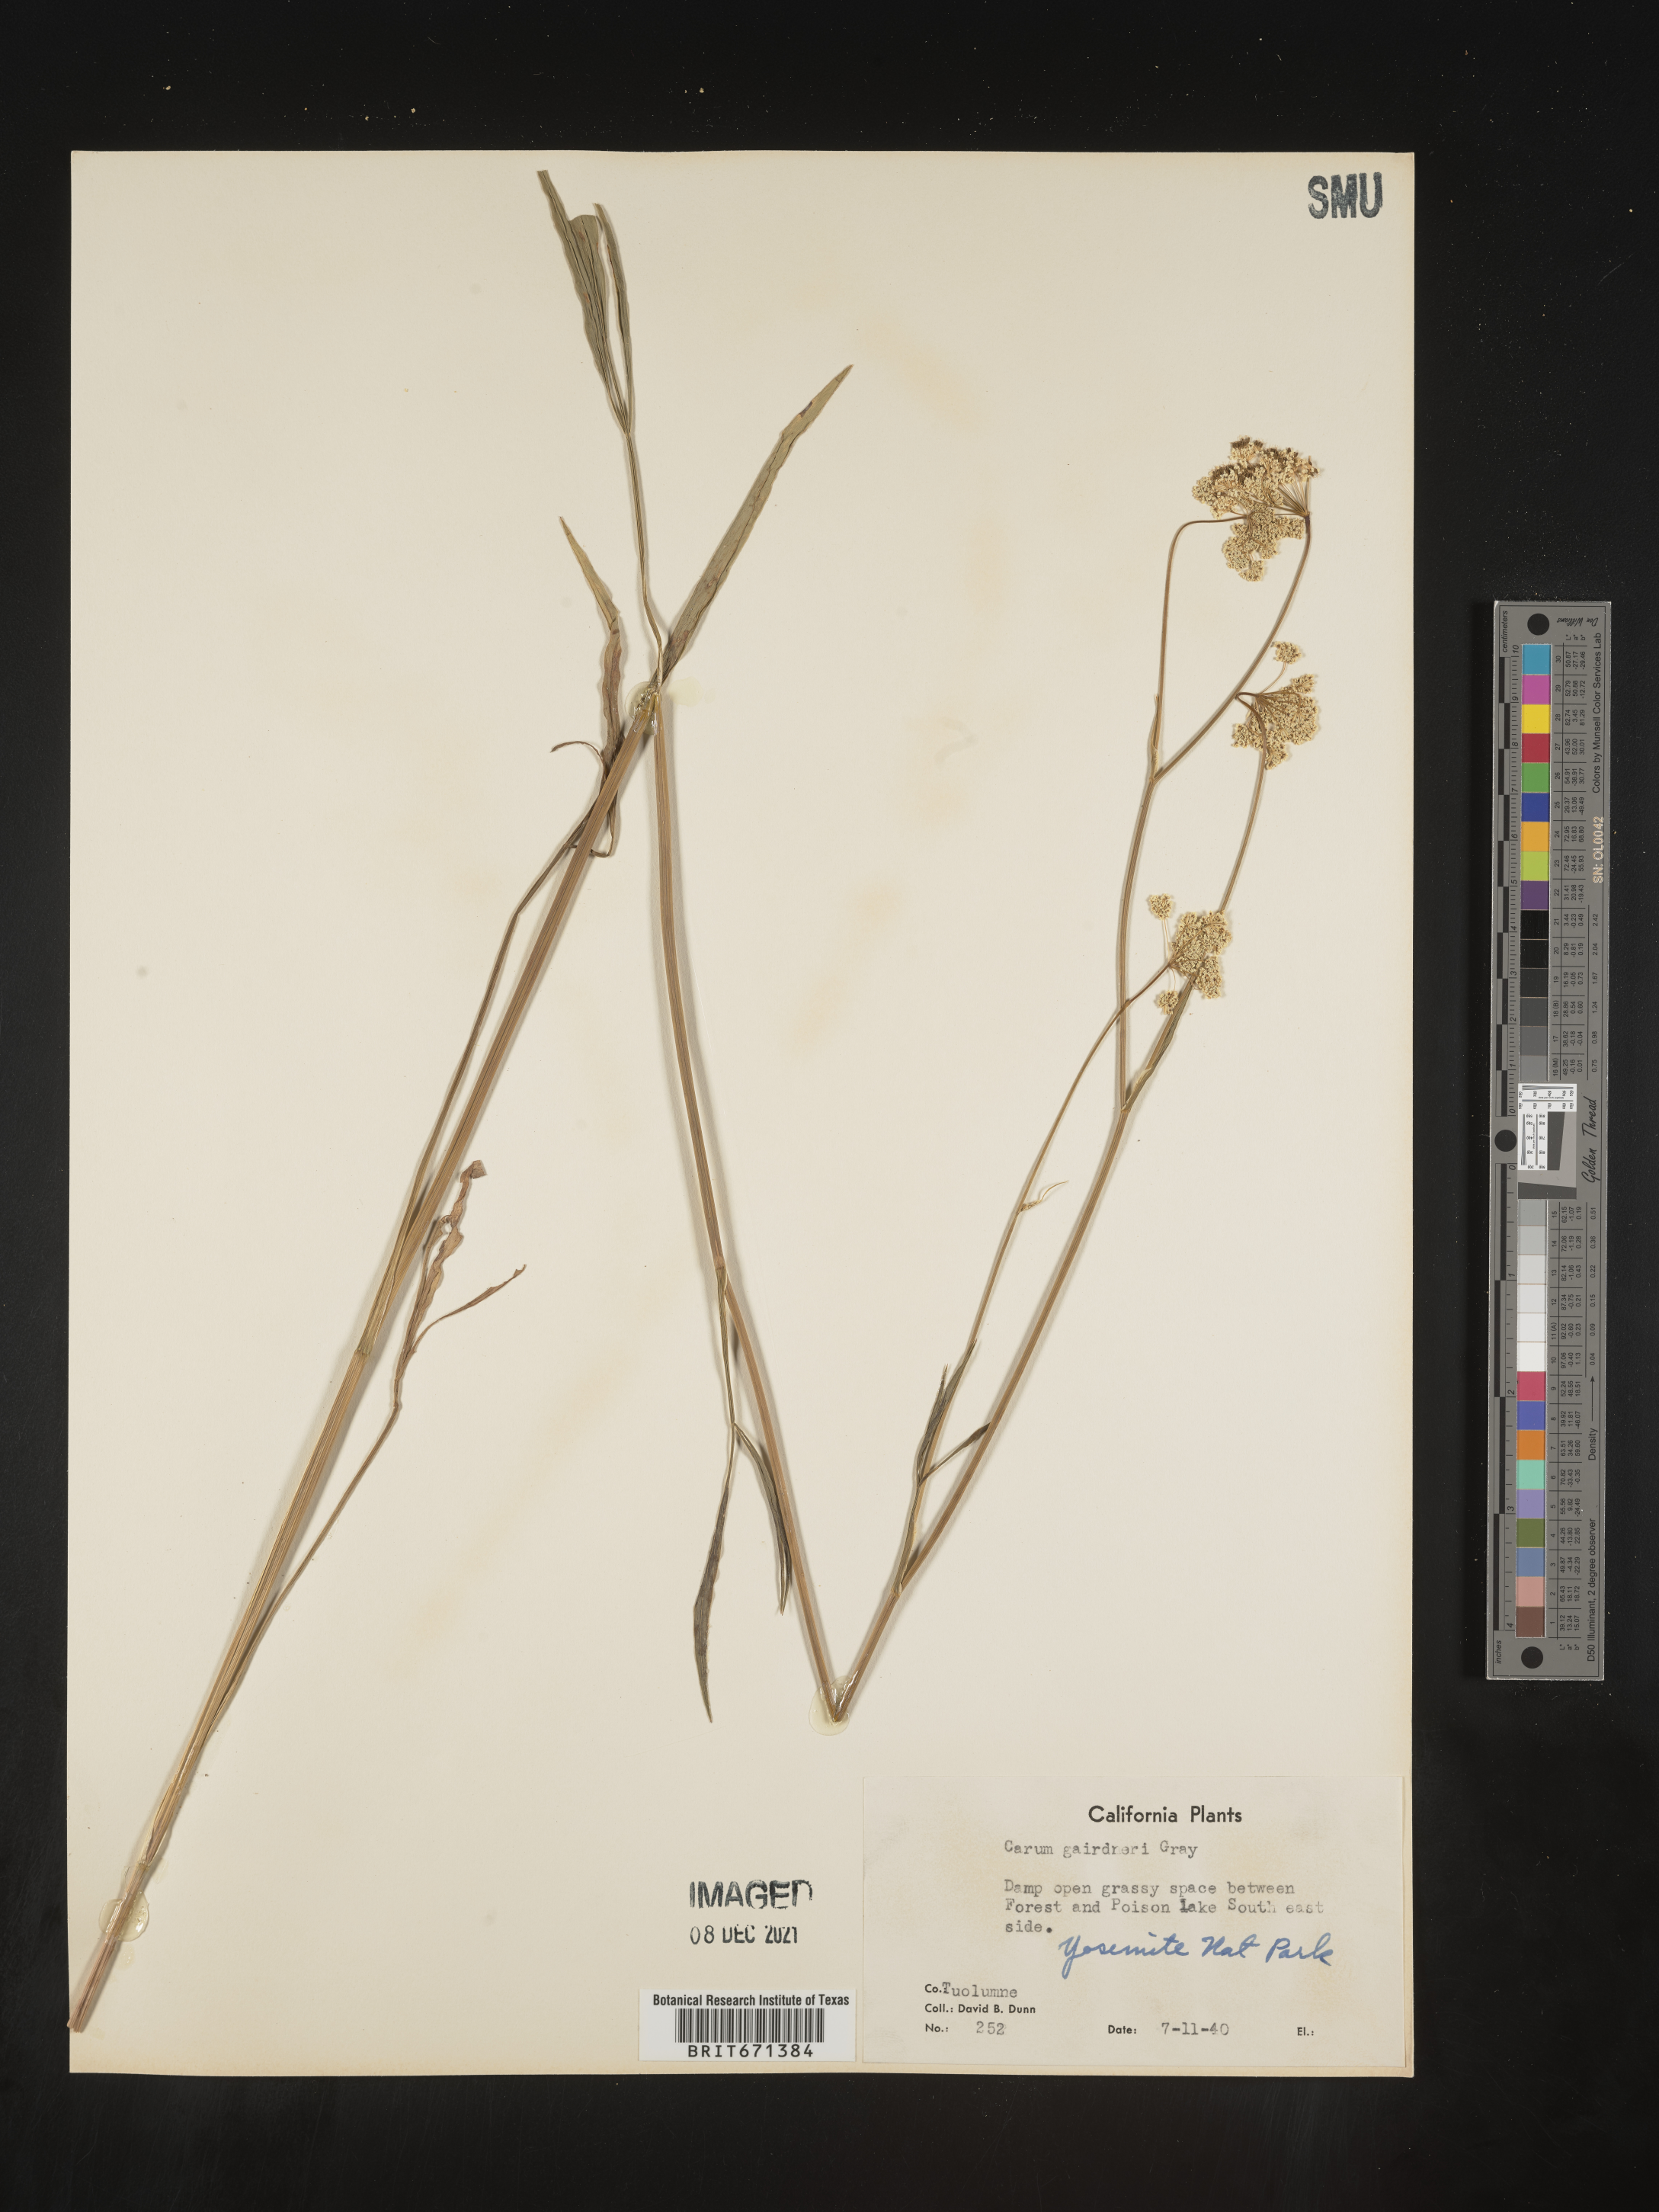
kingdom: Plantae
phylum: Tracheophyta
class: Magnoliopsida
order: Apiales
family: Apiaceae
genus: Perideridia
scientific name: Perideridia gairdneri
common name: False caraway
